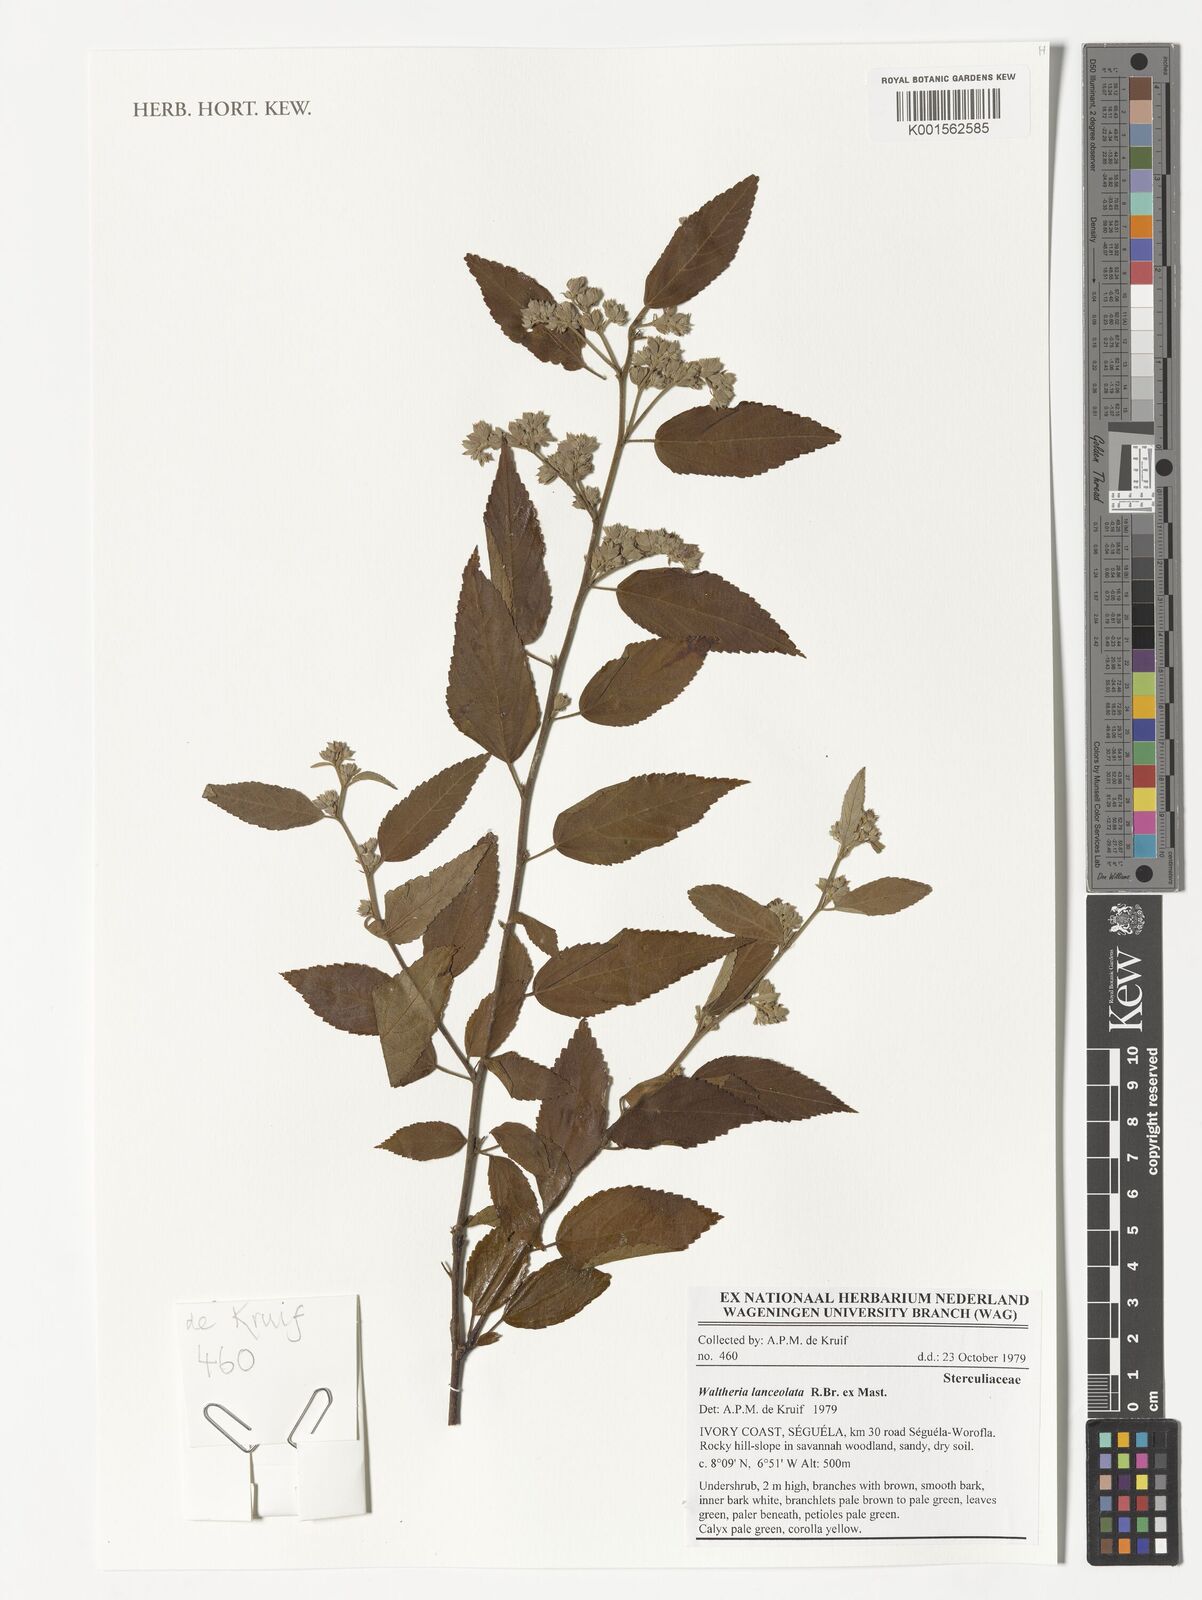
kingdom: Plantae
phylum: Tracheophyta
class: Magnoliopsida
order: Malvales
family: Malvaceae
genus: Waltheria
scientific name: Waltheria lanceolata
